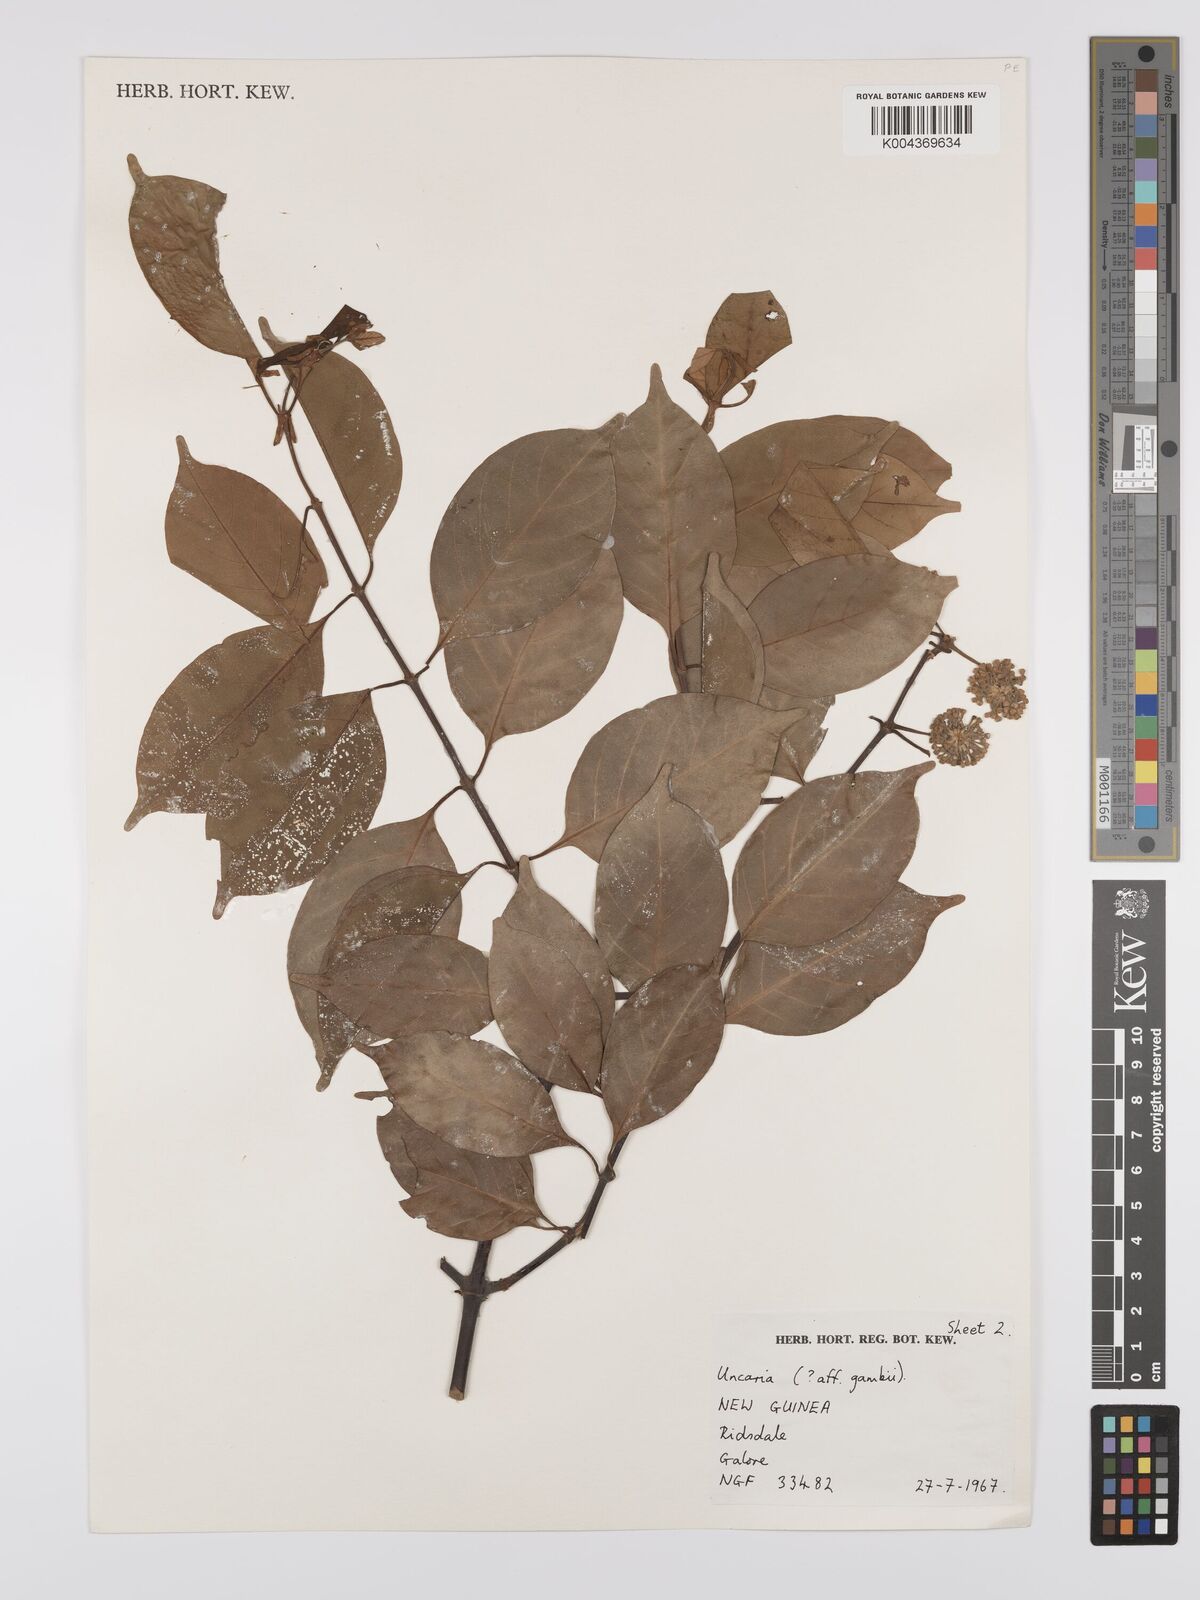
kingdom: Plantae
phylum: Tracheophyta
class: Magnoliopsida
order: Gentianales
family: Rubiaceae
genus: Uncaria
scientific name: Uncaria callophylla
